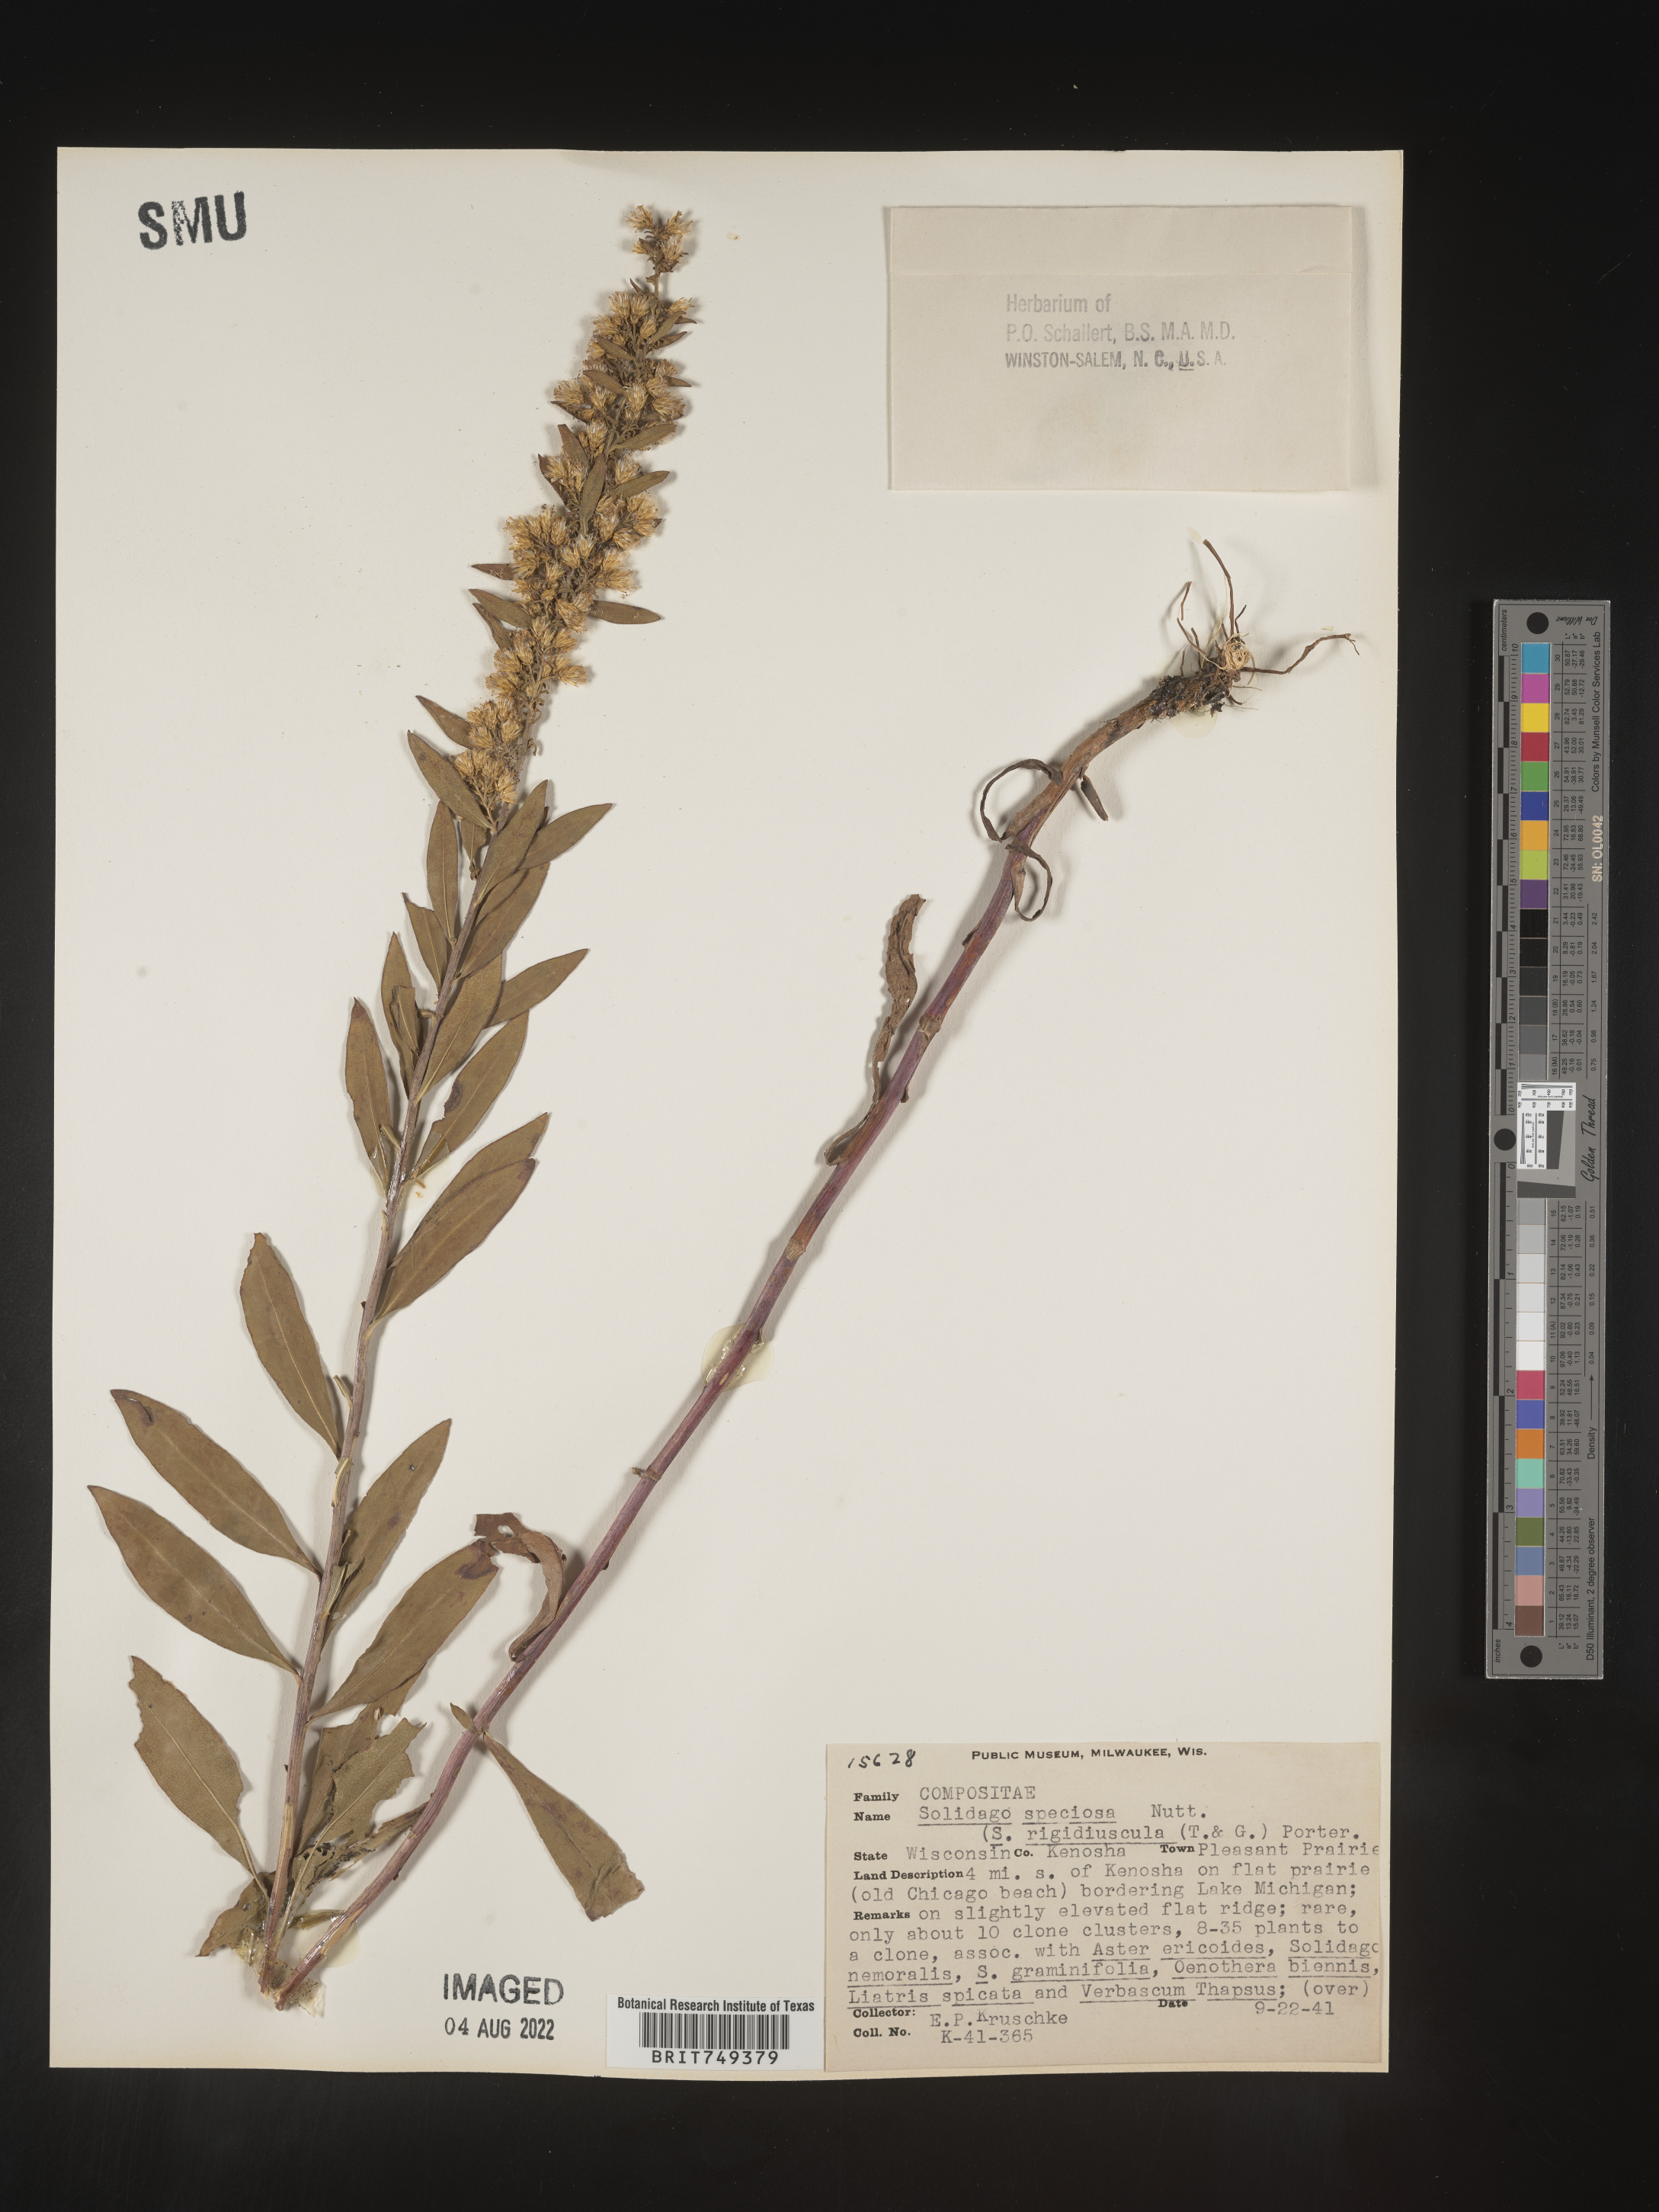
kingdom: Plantae
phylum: Tracheophyta
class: Magnoliopsida
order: Asterales
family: Asteraceae
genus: Solidago
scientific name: Solidago speciosa
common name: Showy goldenrod
